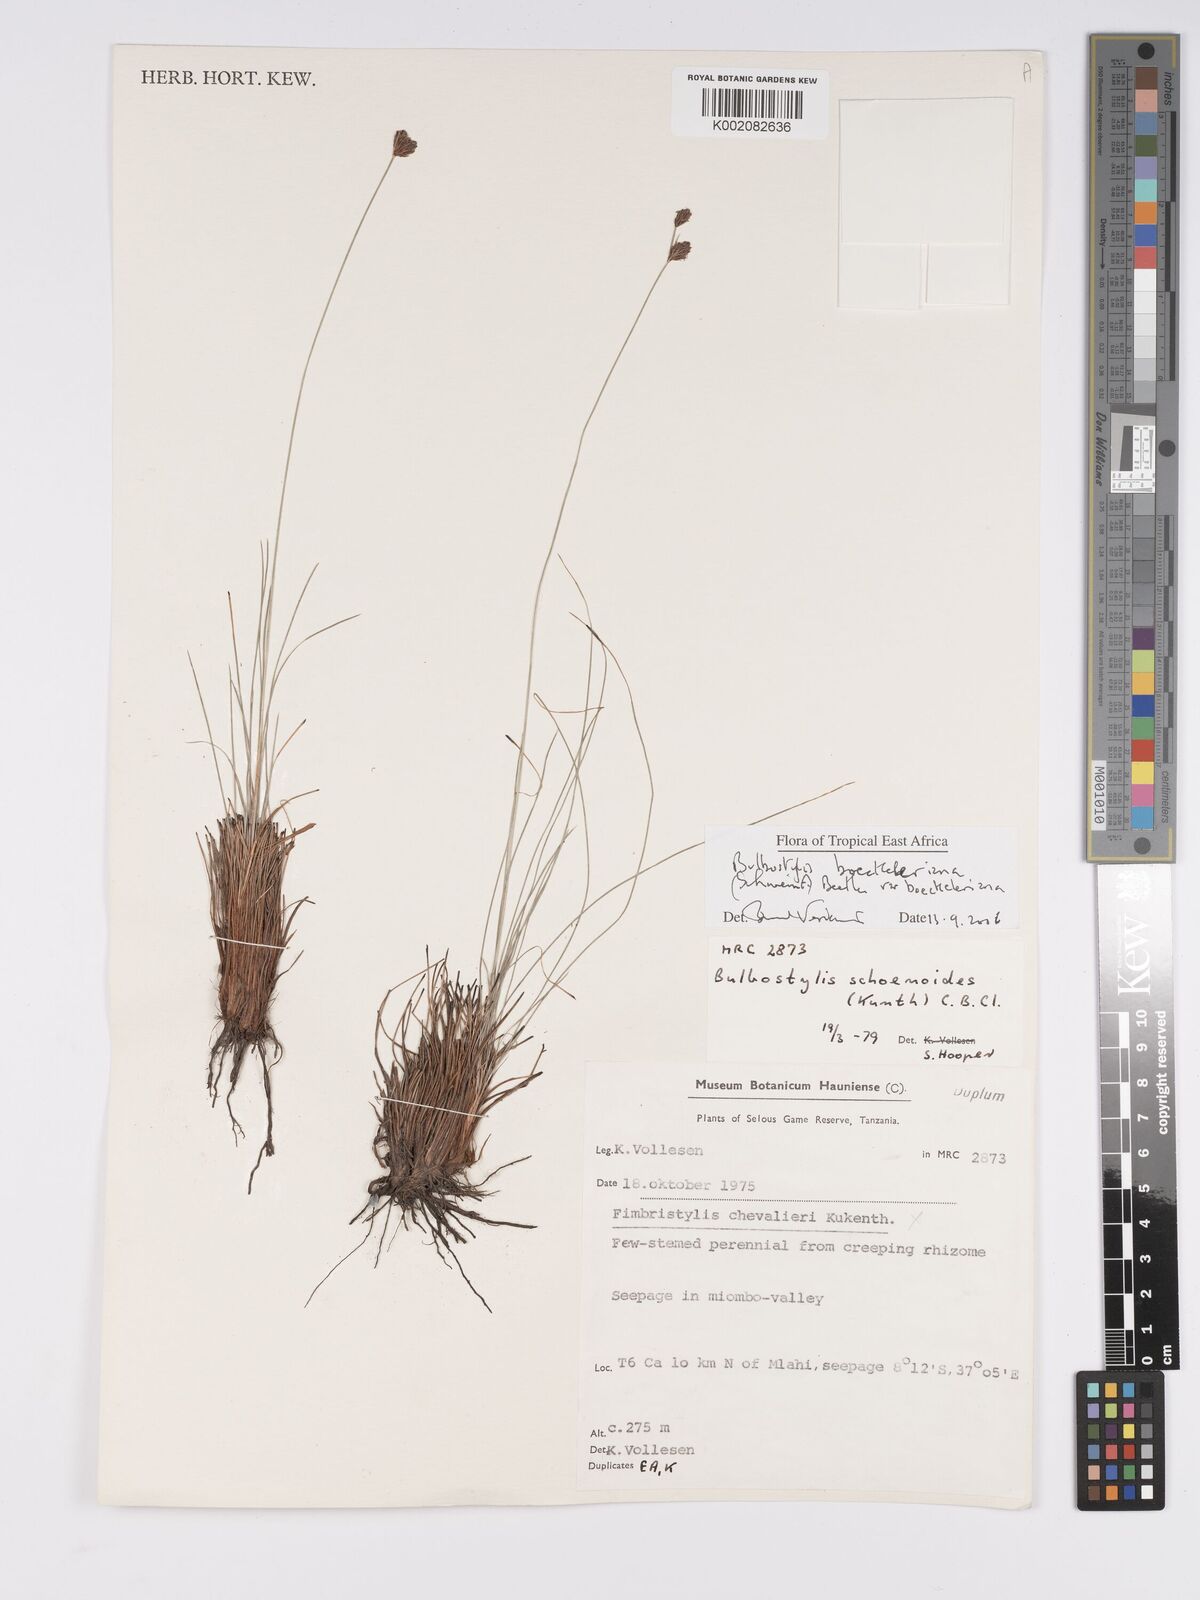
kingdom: Plantae
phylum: Tracheophyta
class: Liliopsida
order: Poales
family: Cyperaceae
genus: Bulbostylis
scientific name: Bulbostylis boeckeleriana
